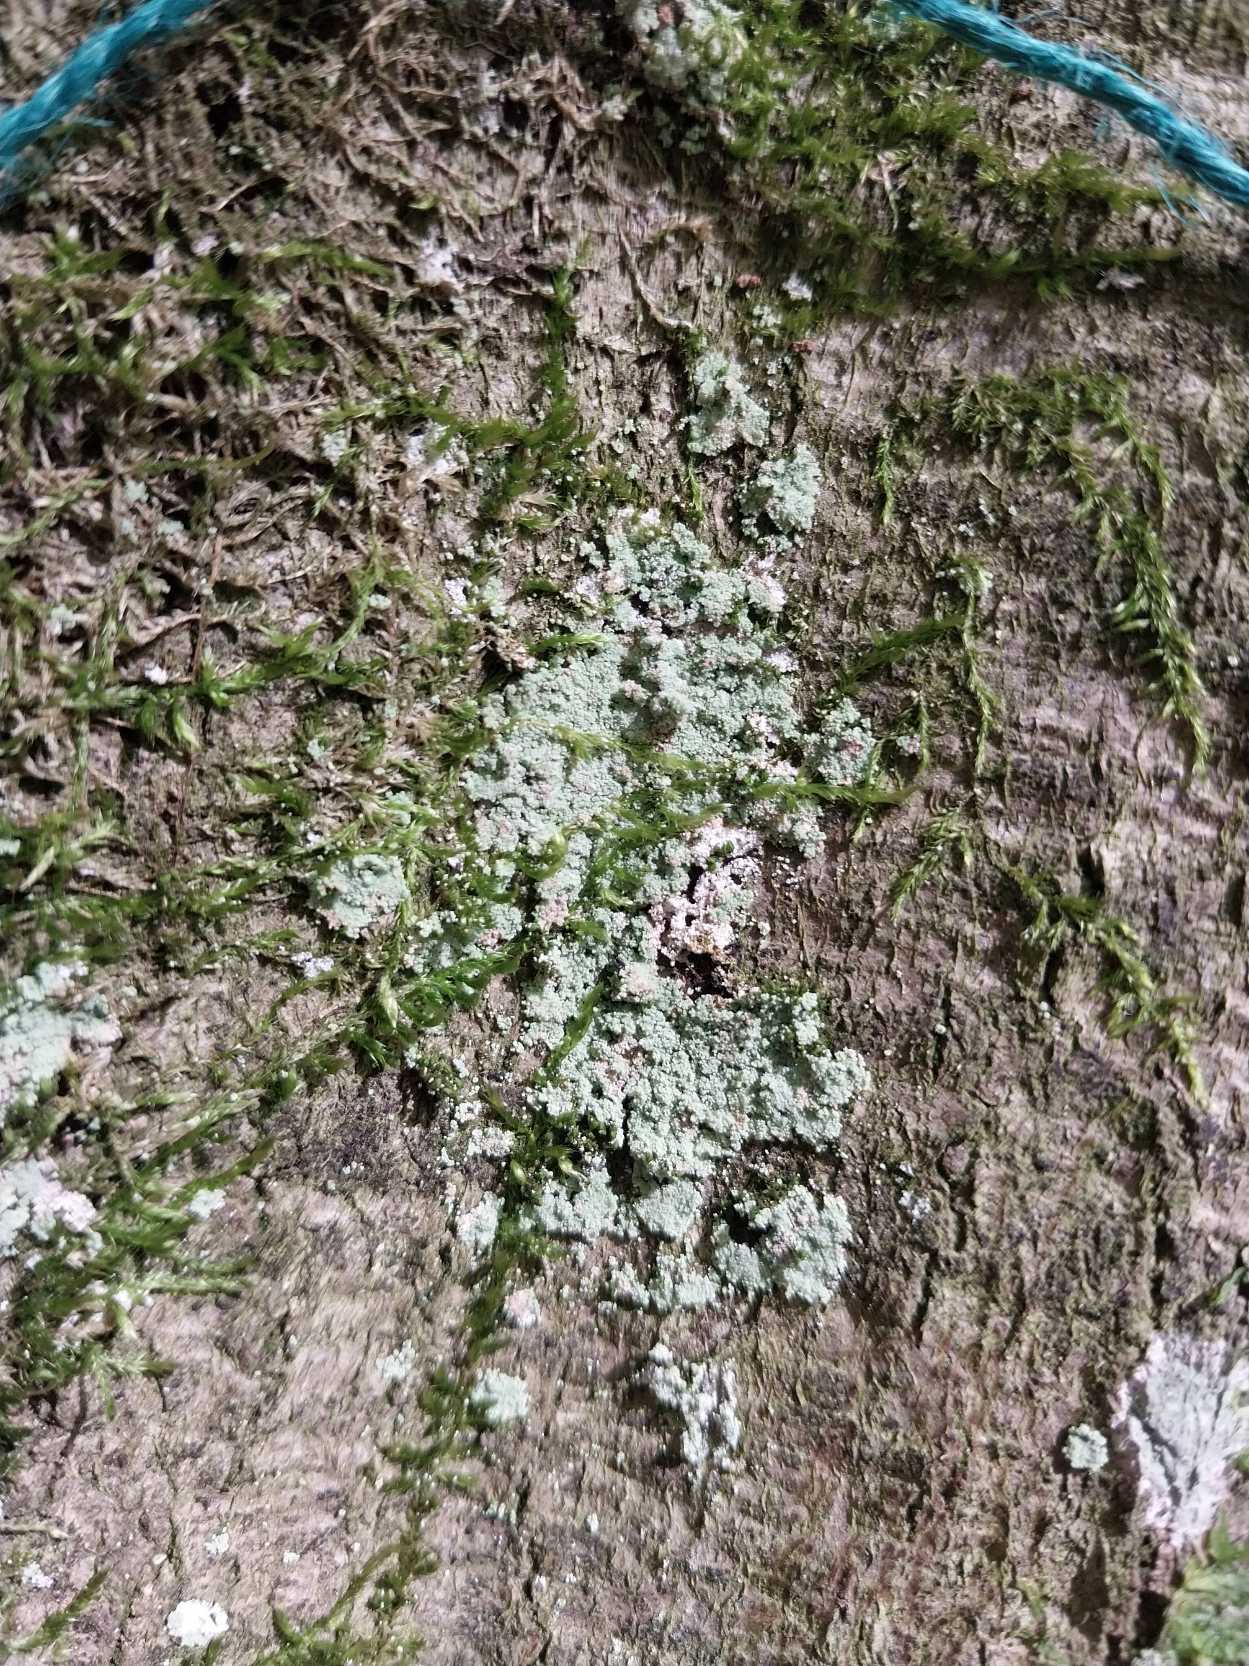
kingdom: Fungi
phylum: Ascomycota
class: Lecanoromycetes
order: Lecanorales
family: Stereocaulaceae
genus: Lepraria
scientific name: Lepraria
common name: Støvlav
